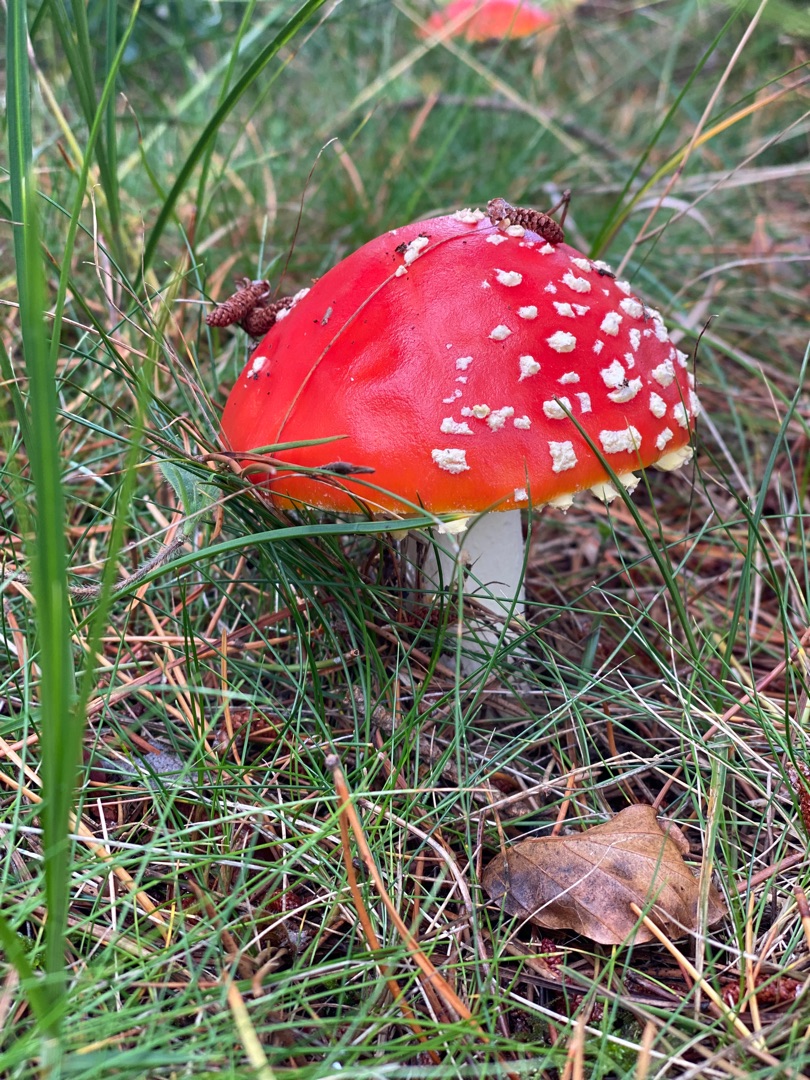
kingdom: Fungi
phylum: Basidiomycota
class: Agaricomycetes
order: Agaricales
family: Amanitaceae
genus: Amanita
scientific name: Amanita muscaria
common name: Rød fluesvamp
